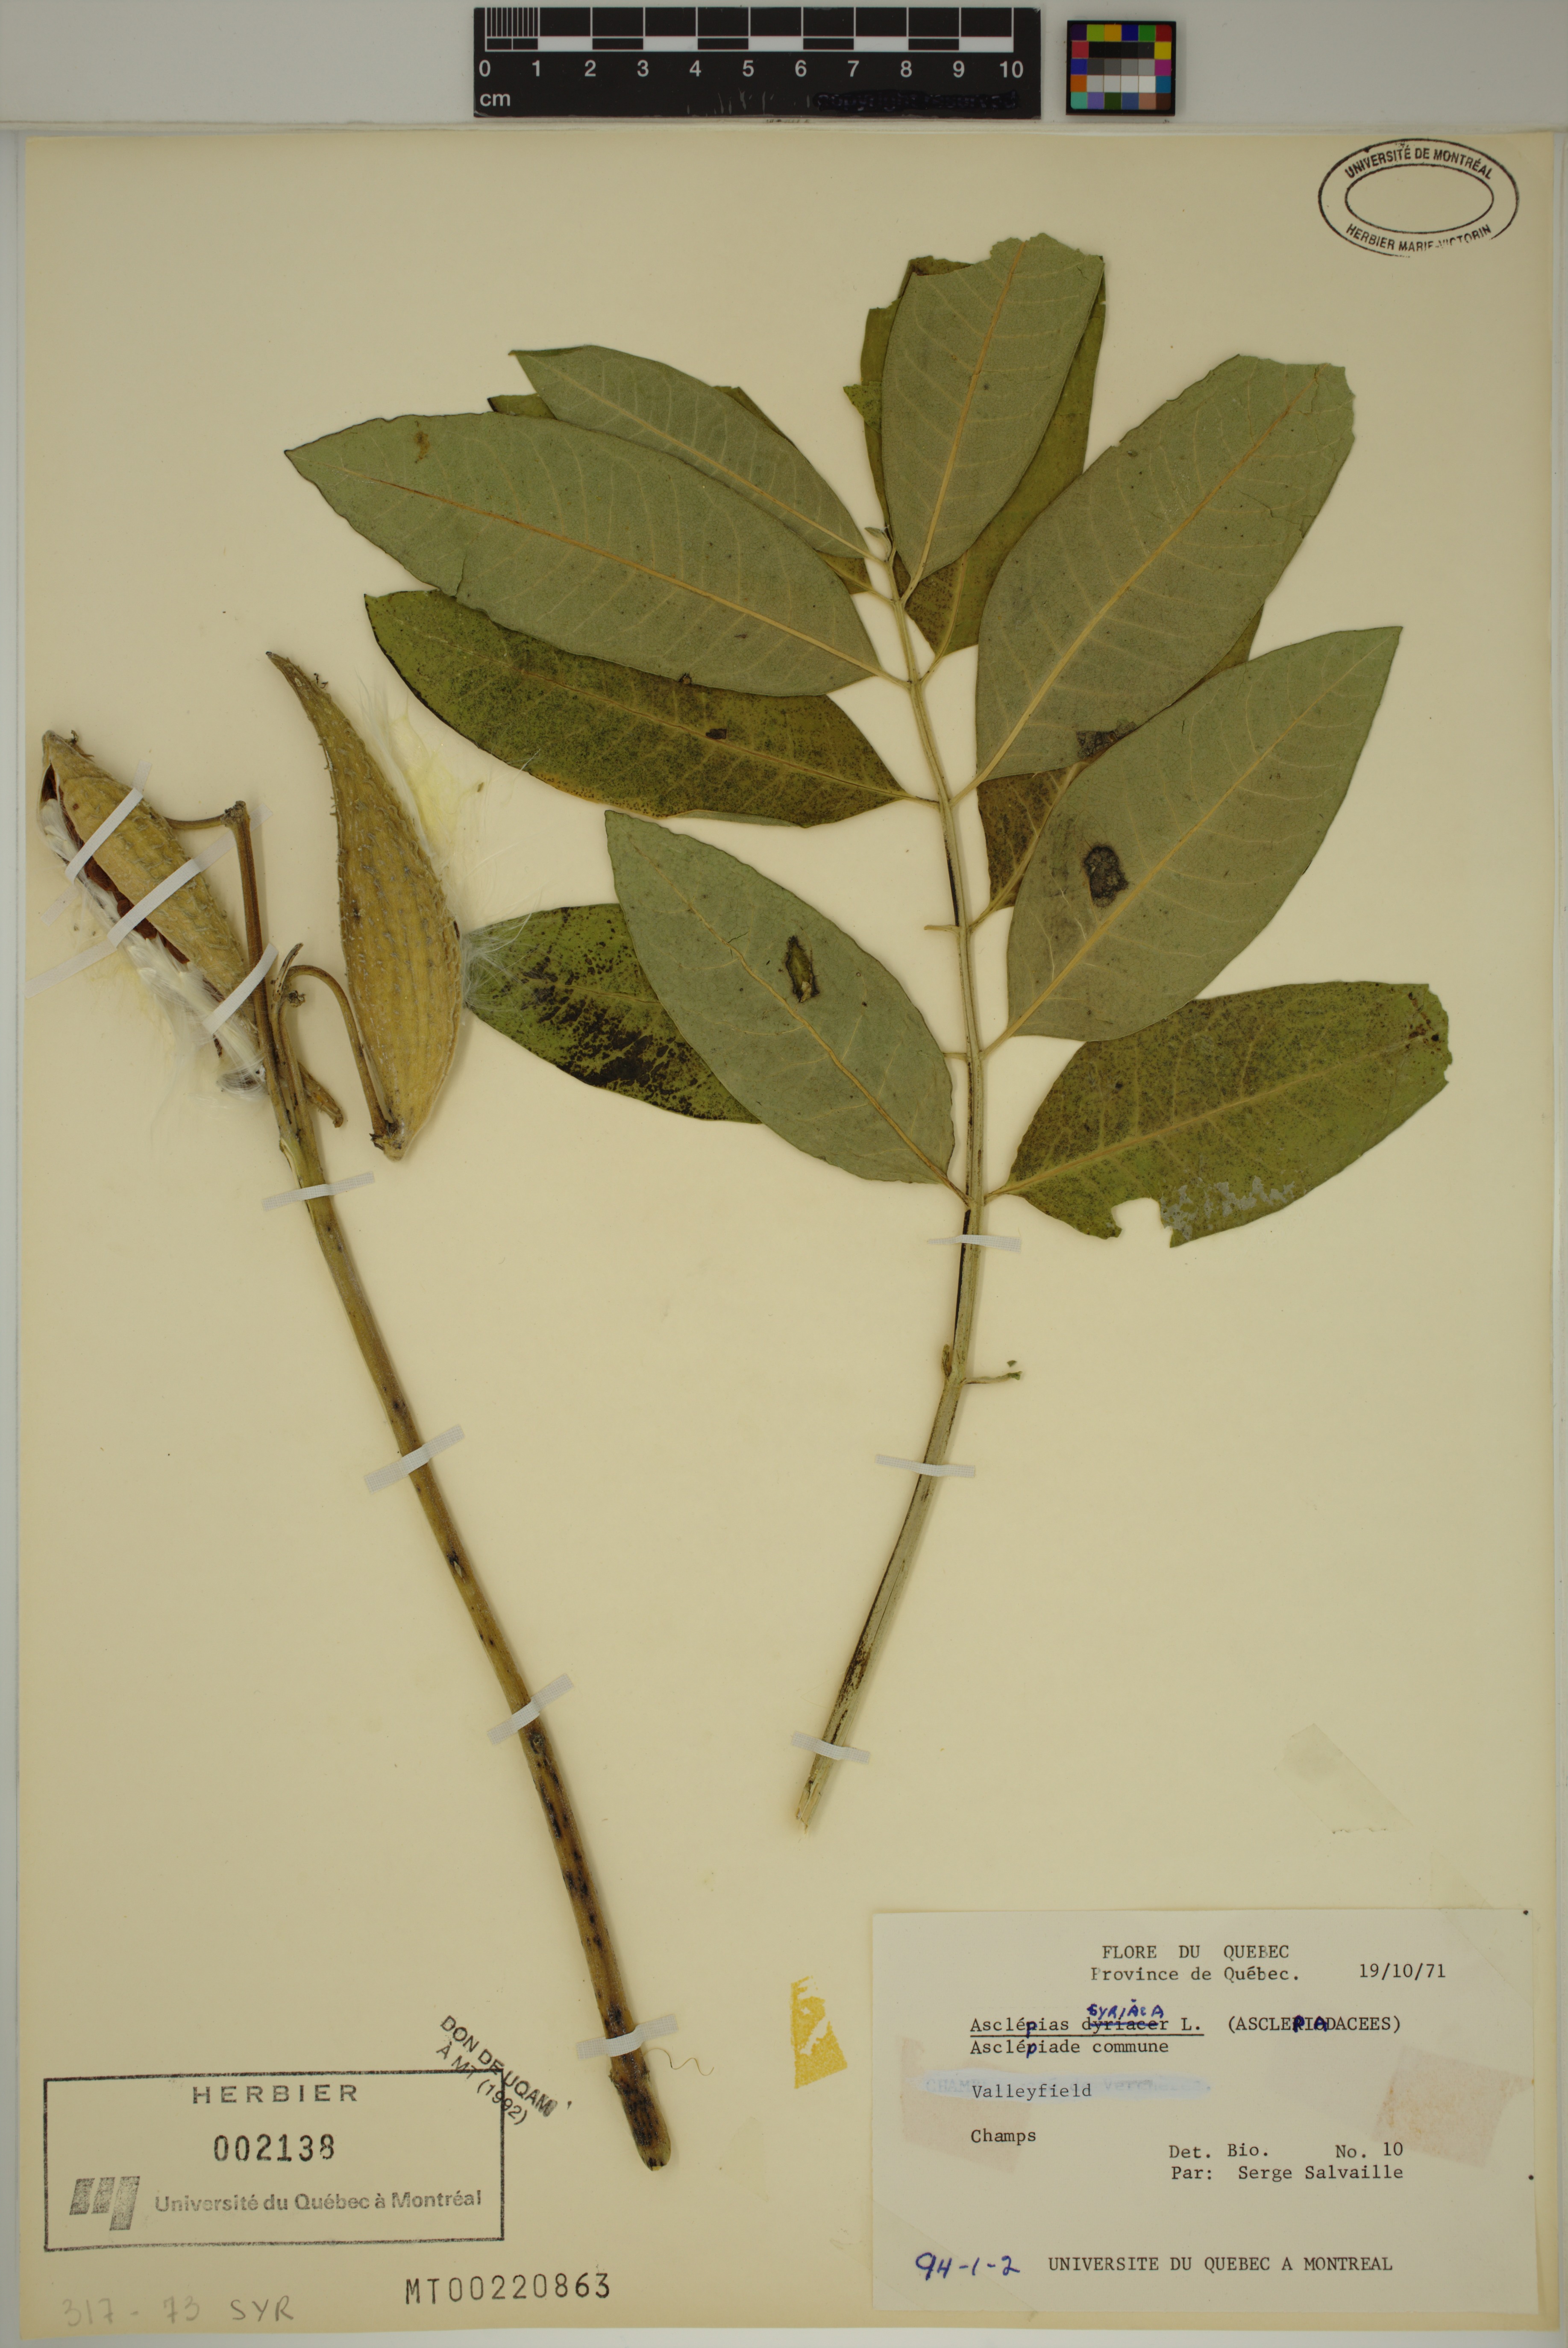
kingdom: Plantae
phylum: Tracheophyta
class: Magnoliopsida
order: Gentianales
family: Apocynaceae
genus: Asclepias
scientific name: Asclepias syriaca
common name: Common milkweed
